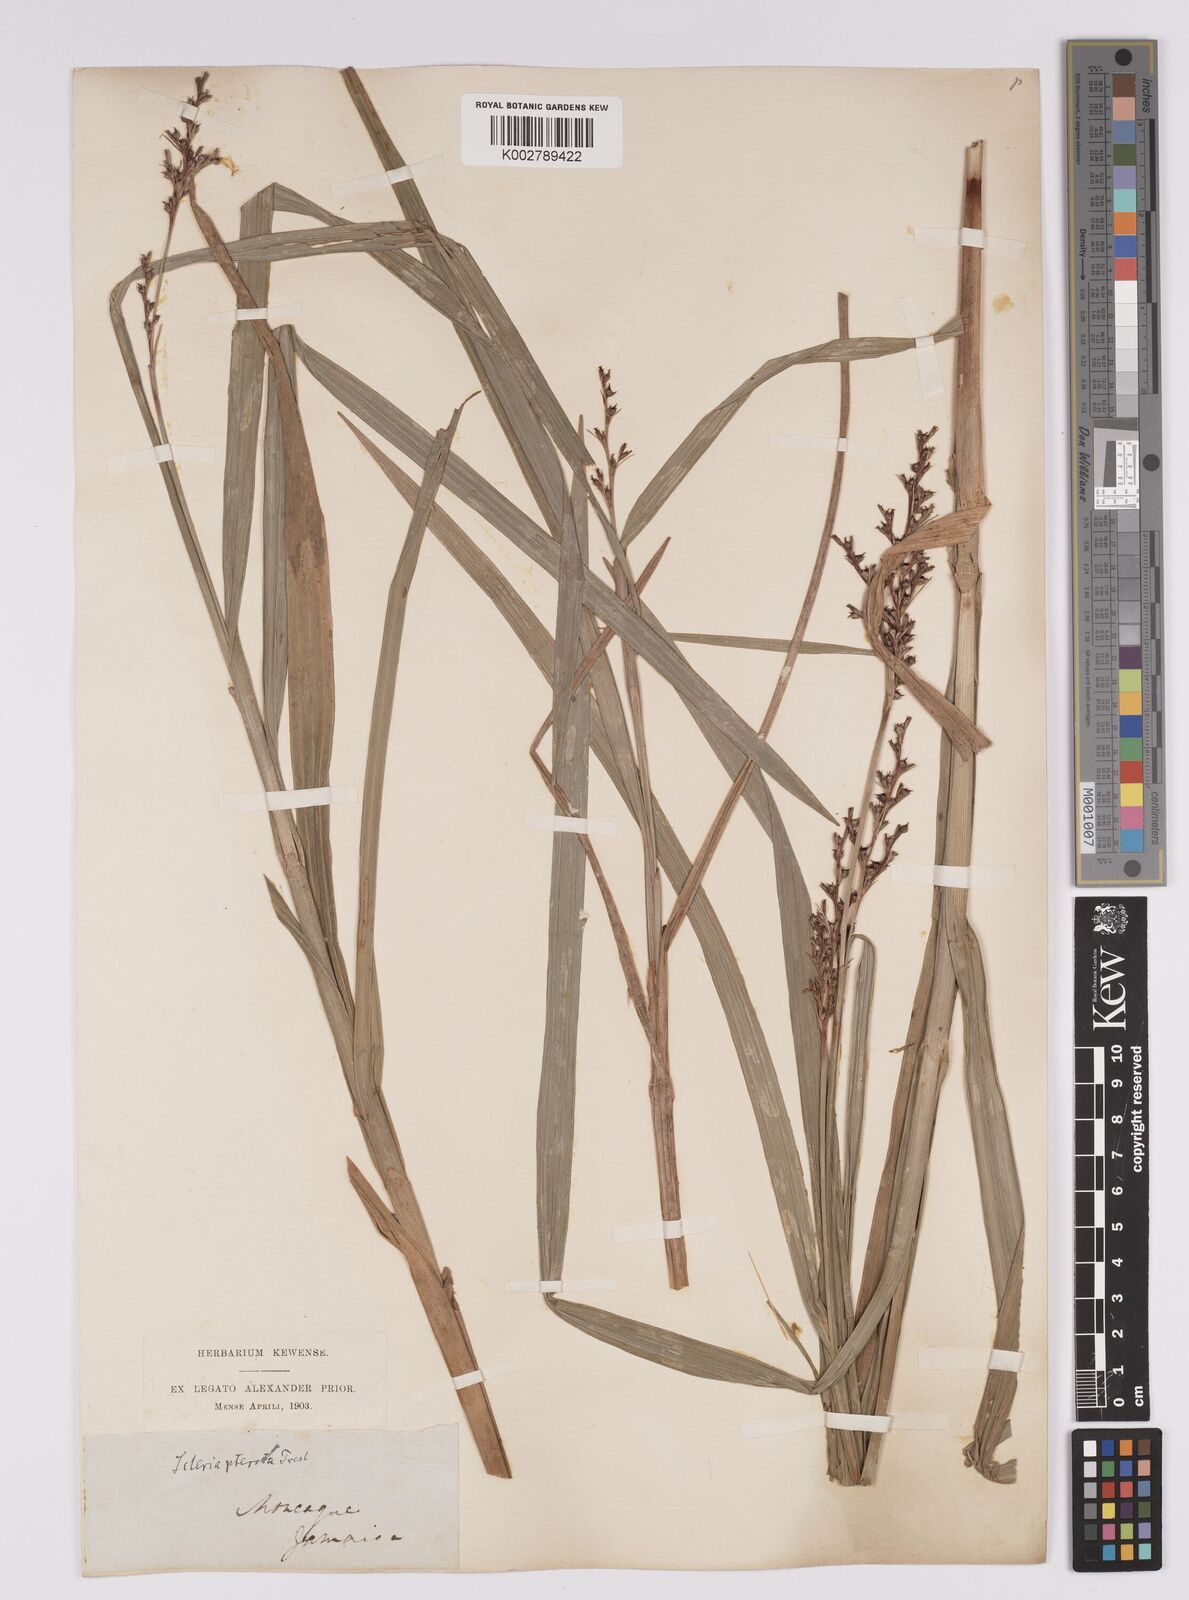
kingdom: Plantae
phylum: Tracheophyta
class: Liliopsida
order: Poales
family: Cyperaceae
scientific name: Cyperaceae
